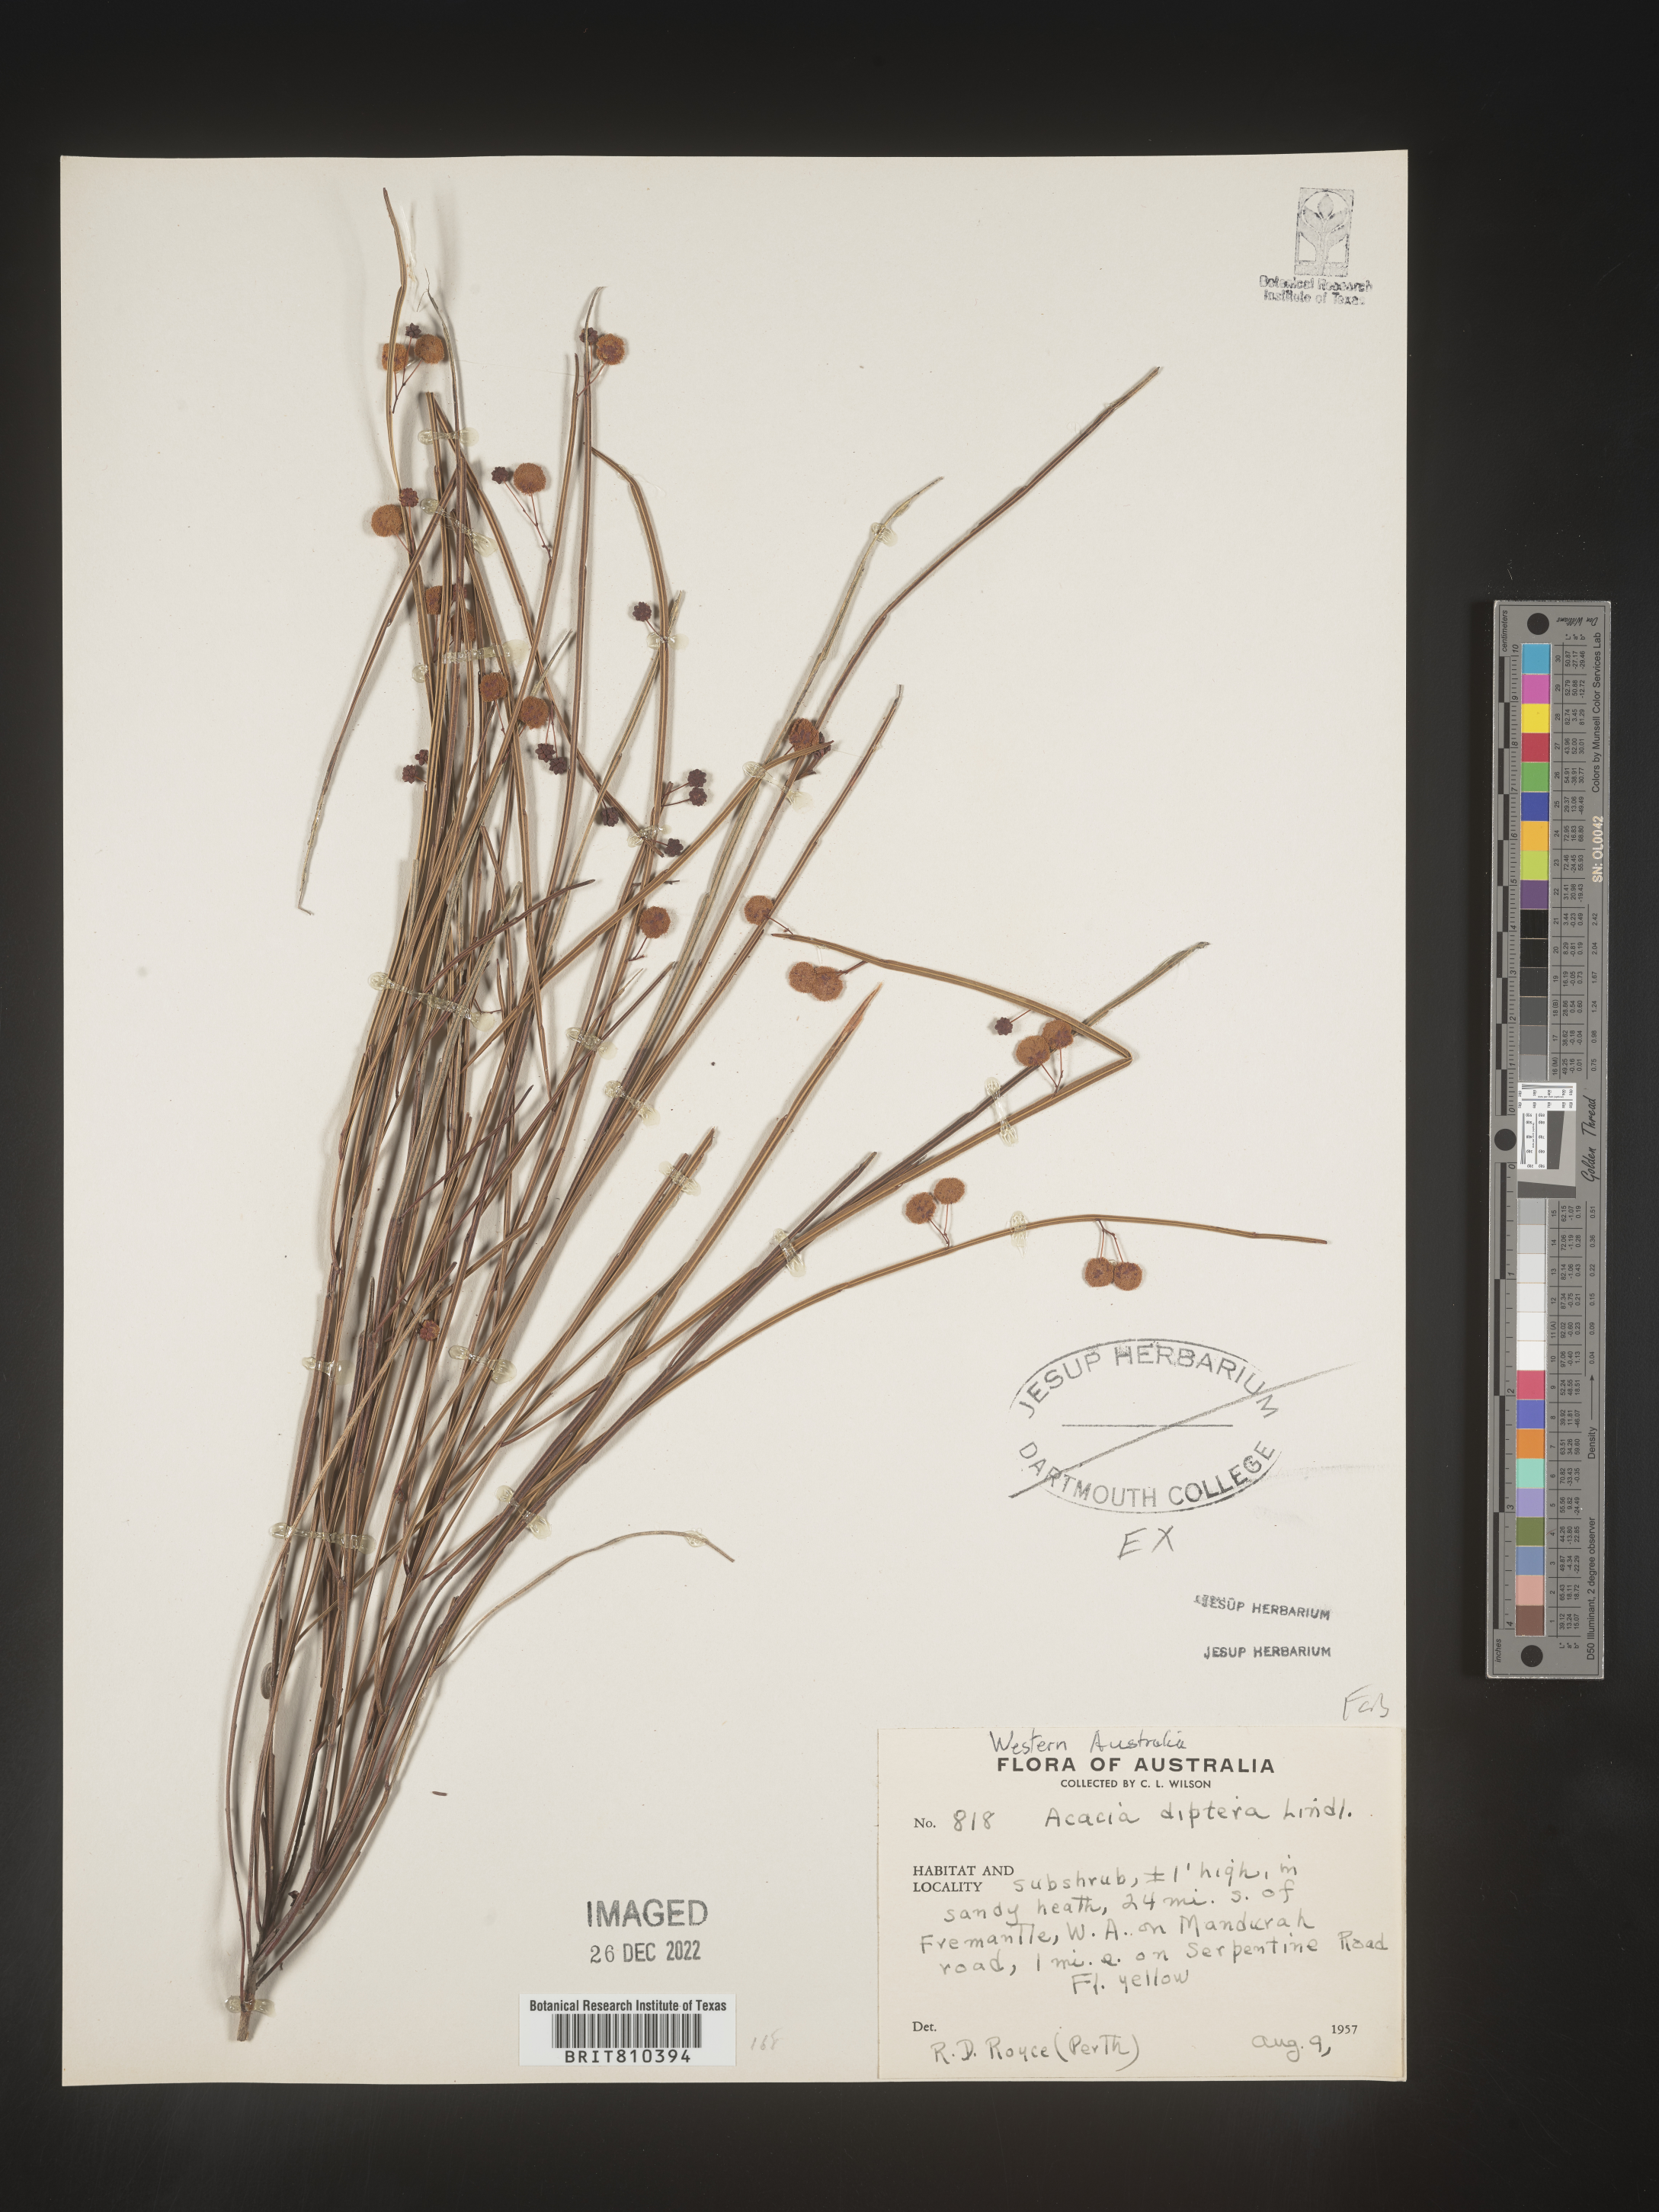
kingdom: Plantae
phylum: Tracheophyta
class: Magnoliopsida
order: Fabales
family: Fabaceae
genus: Acacia
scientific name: Acacia
